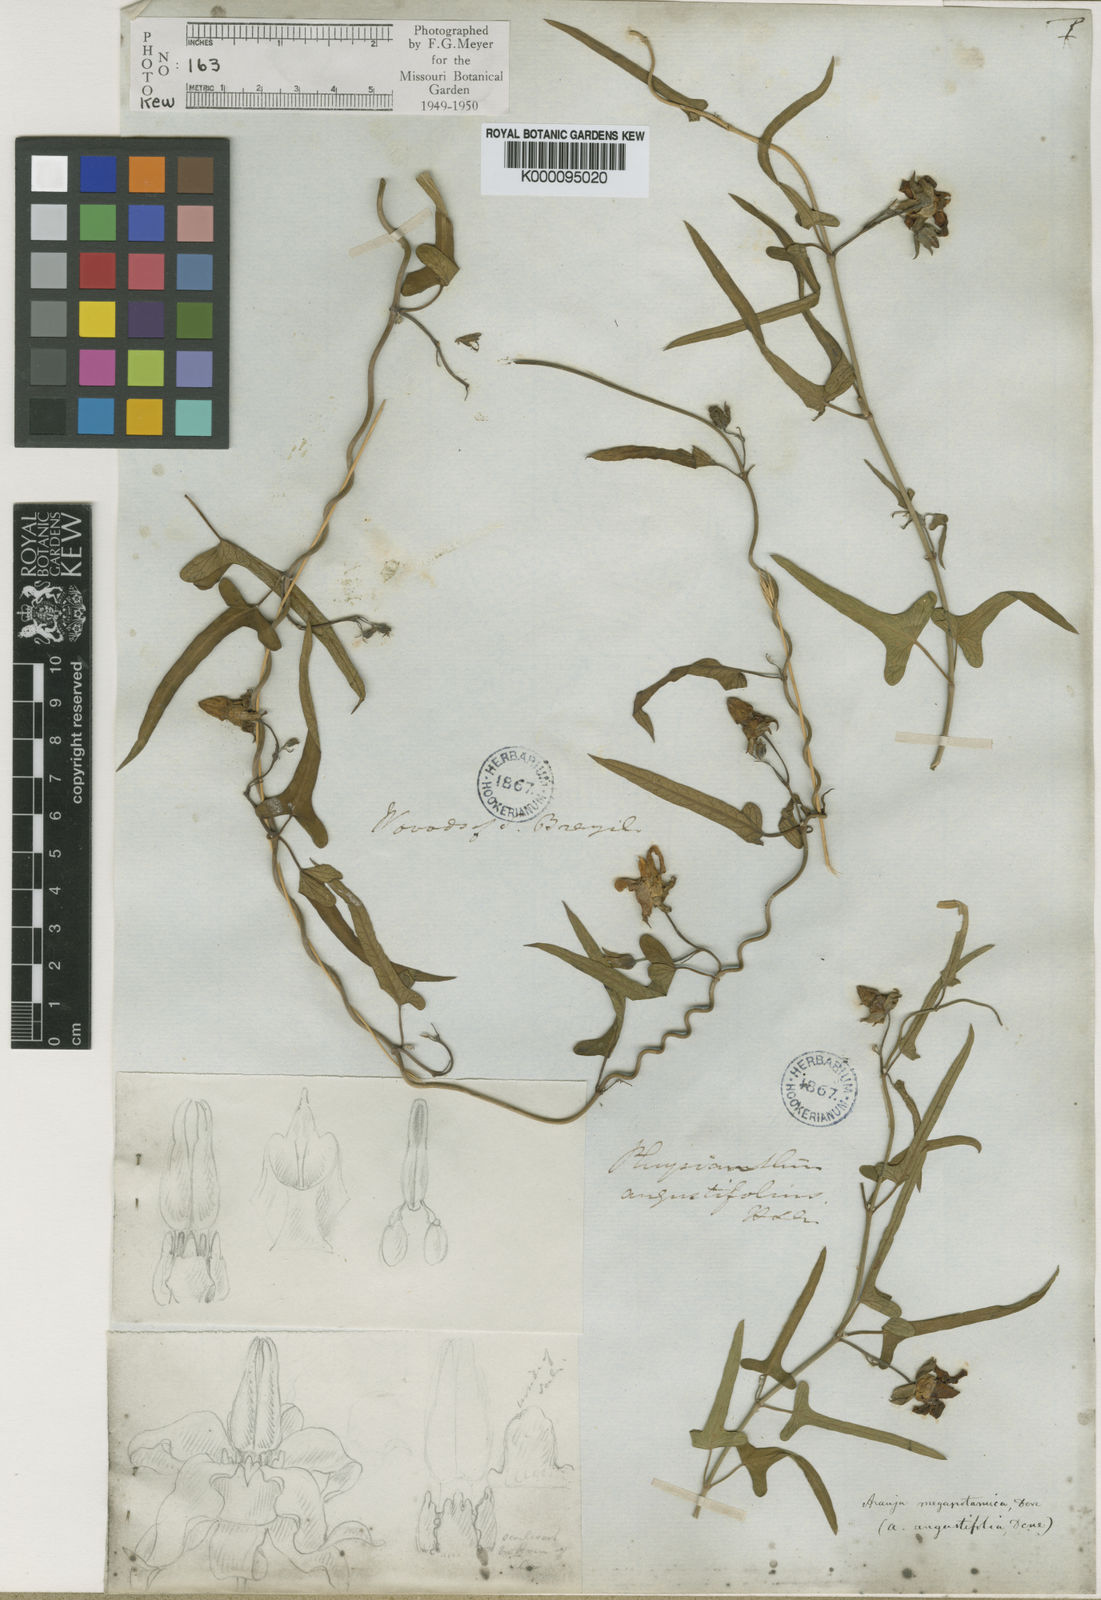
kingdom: Plantae
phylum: Tracheophyta
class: Magnoliopsida
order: Gentianales
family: Apocynaceae
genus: Araujia
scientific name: Araujia angustifolia
